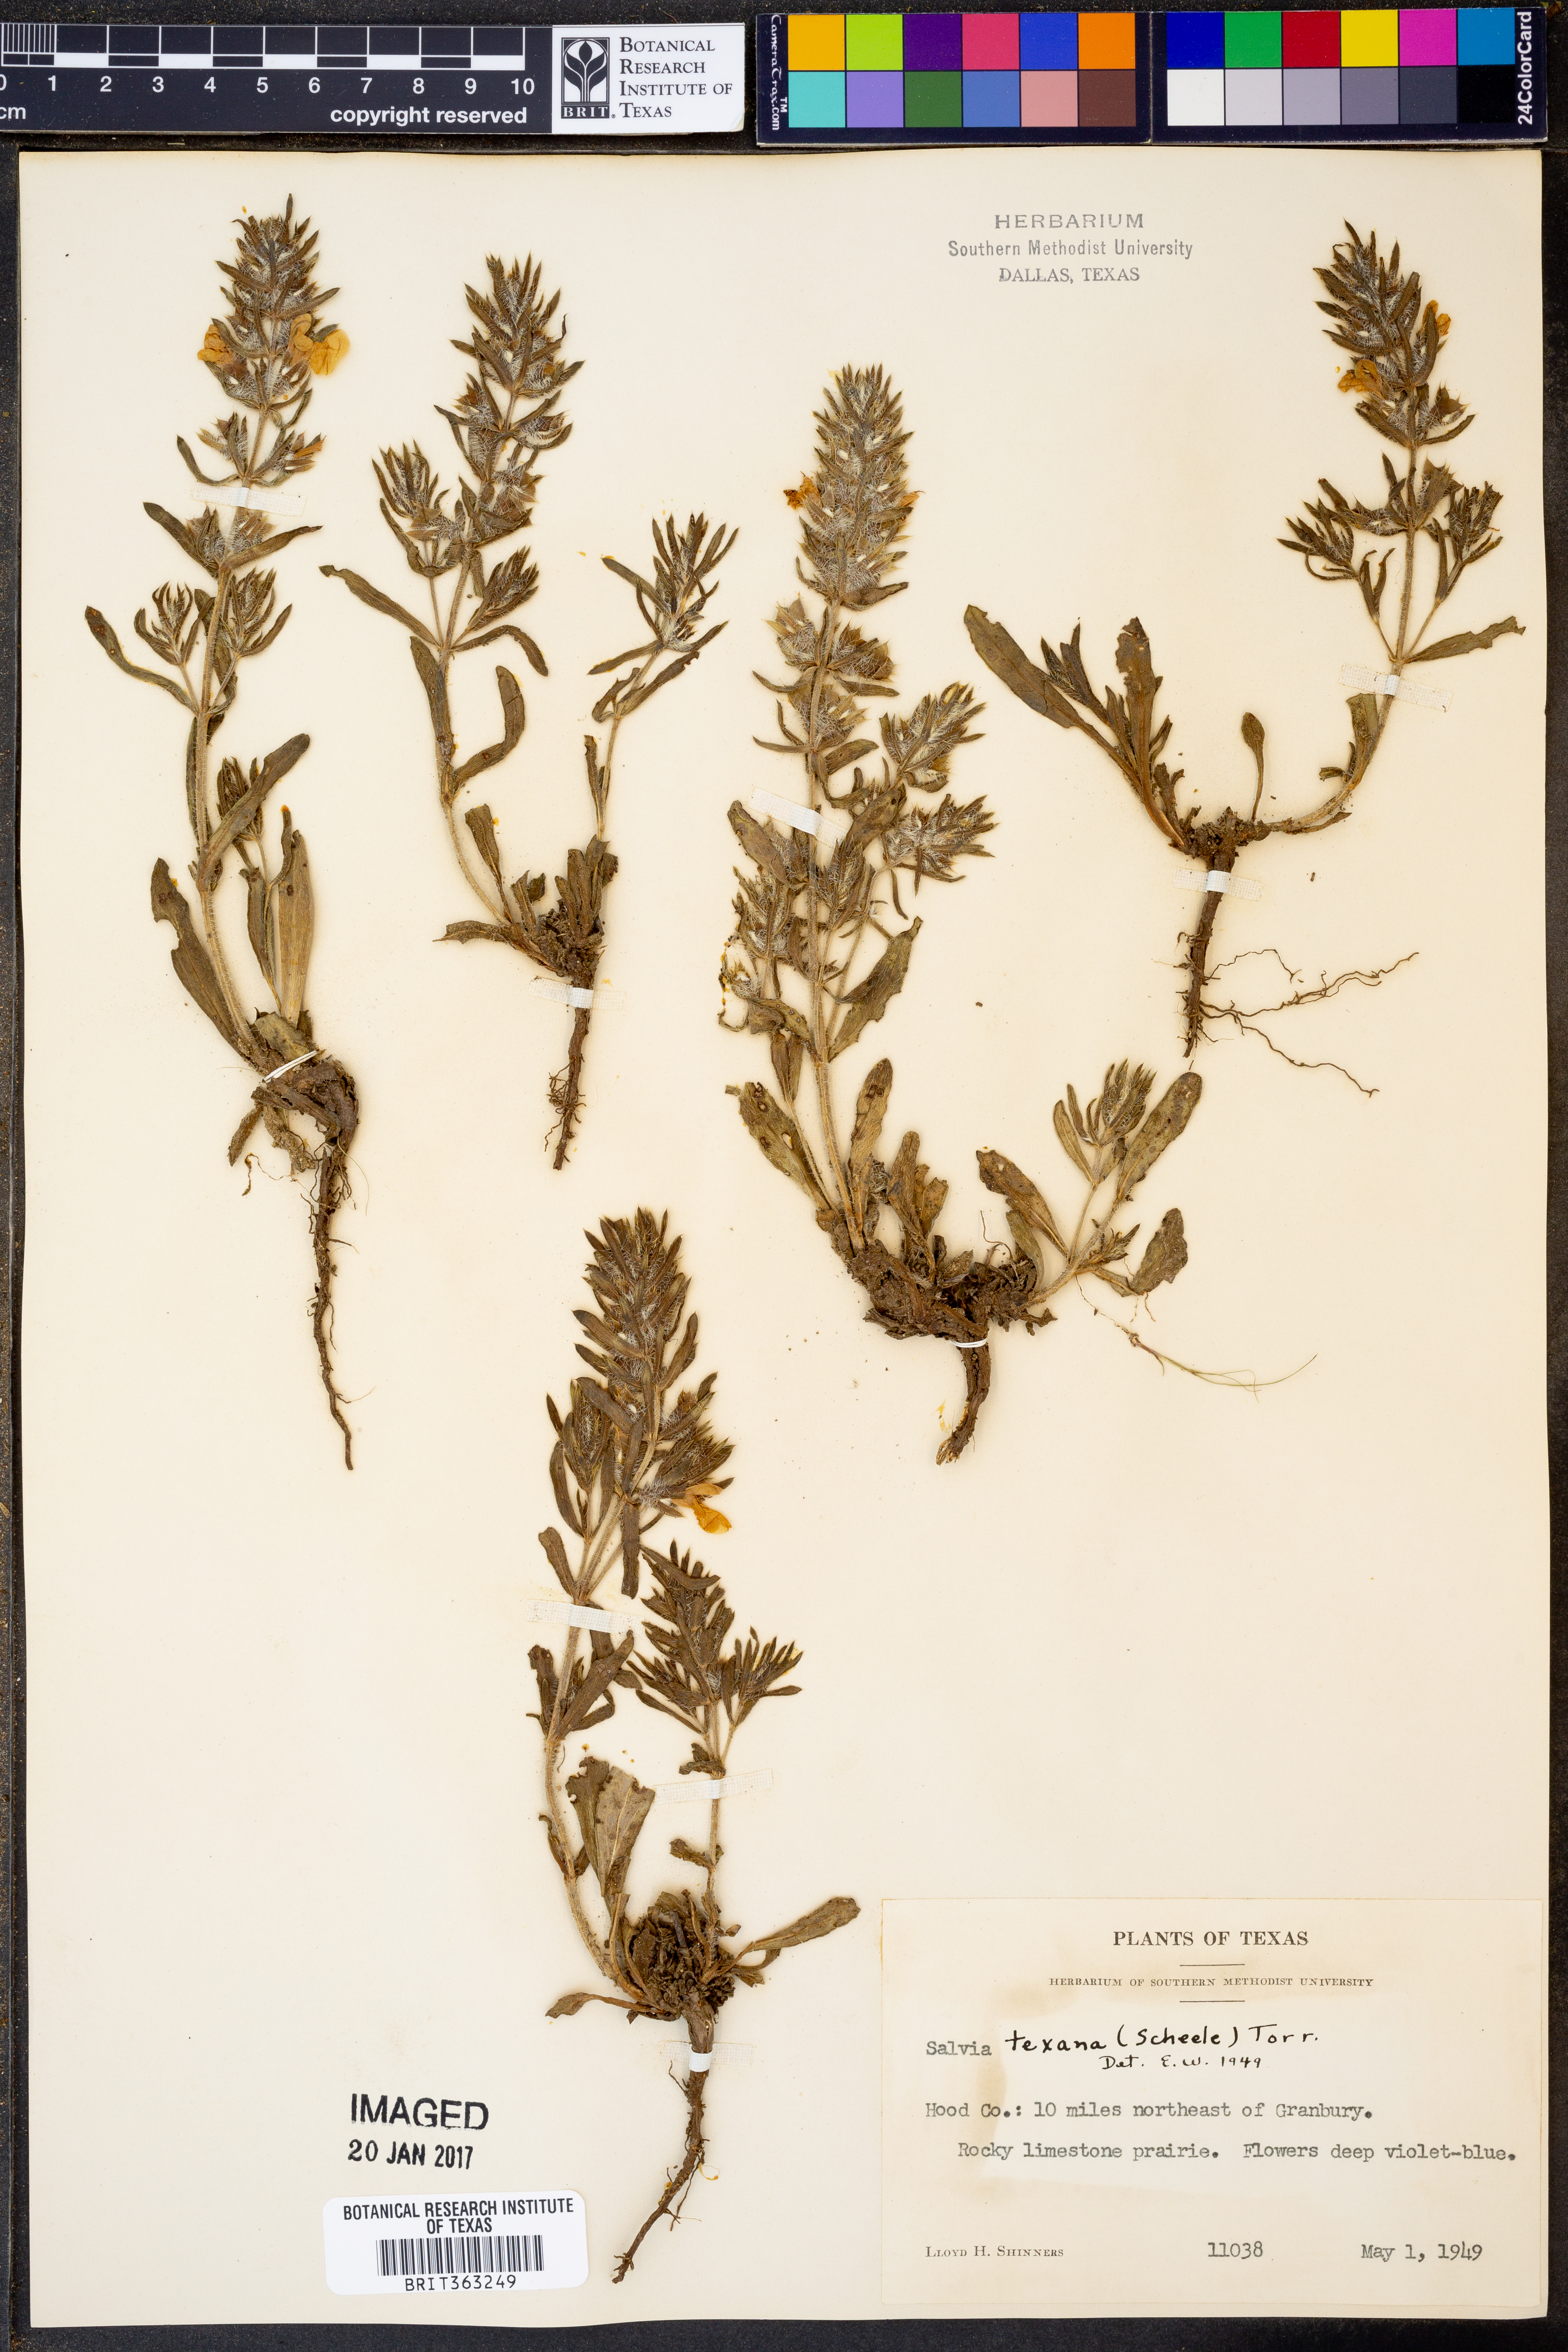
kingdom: Plantae
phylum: Tracheophyta
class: Magnoliopsida
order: Lamiales
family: Lamiaceae
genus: Salvia
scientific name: Salvia texana
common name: Texas sage
